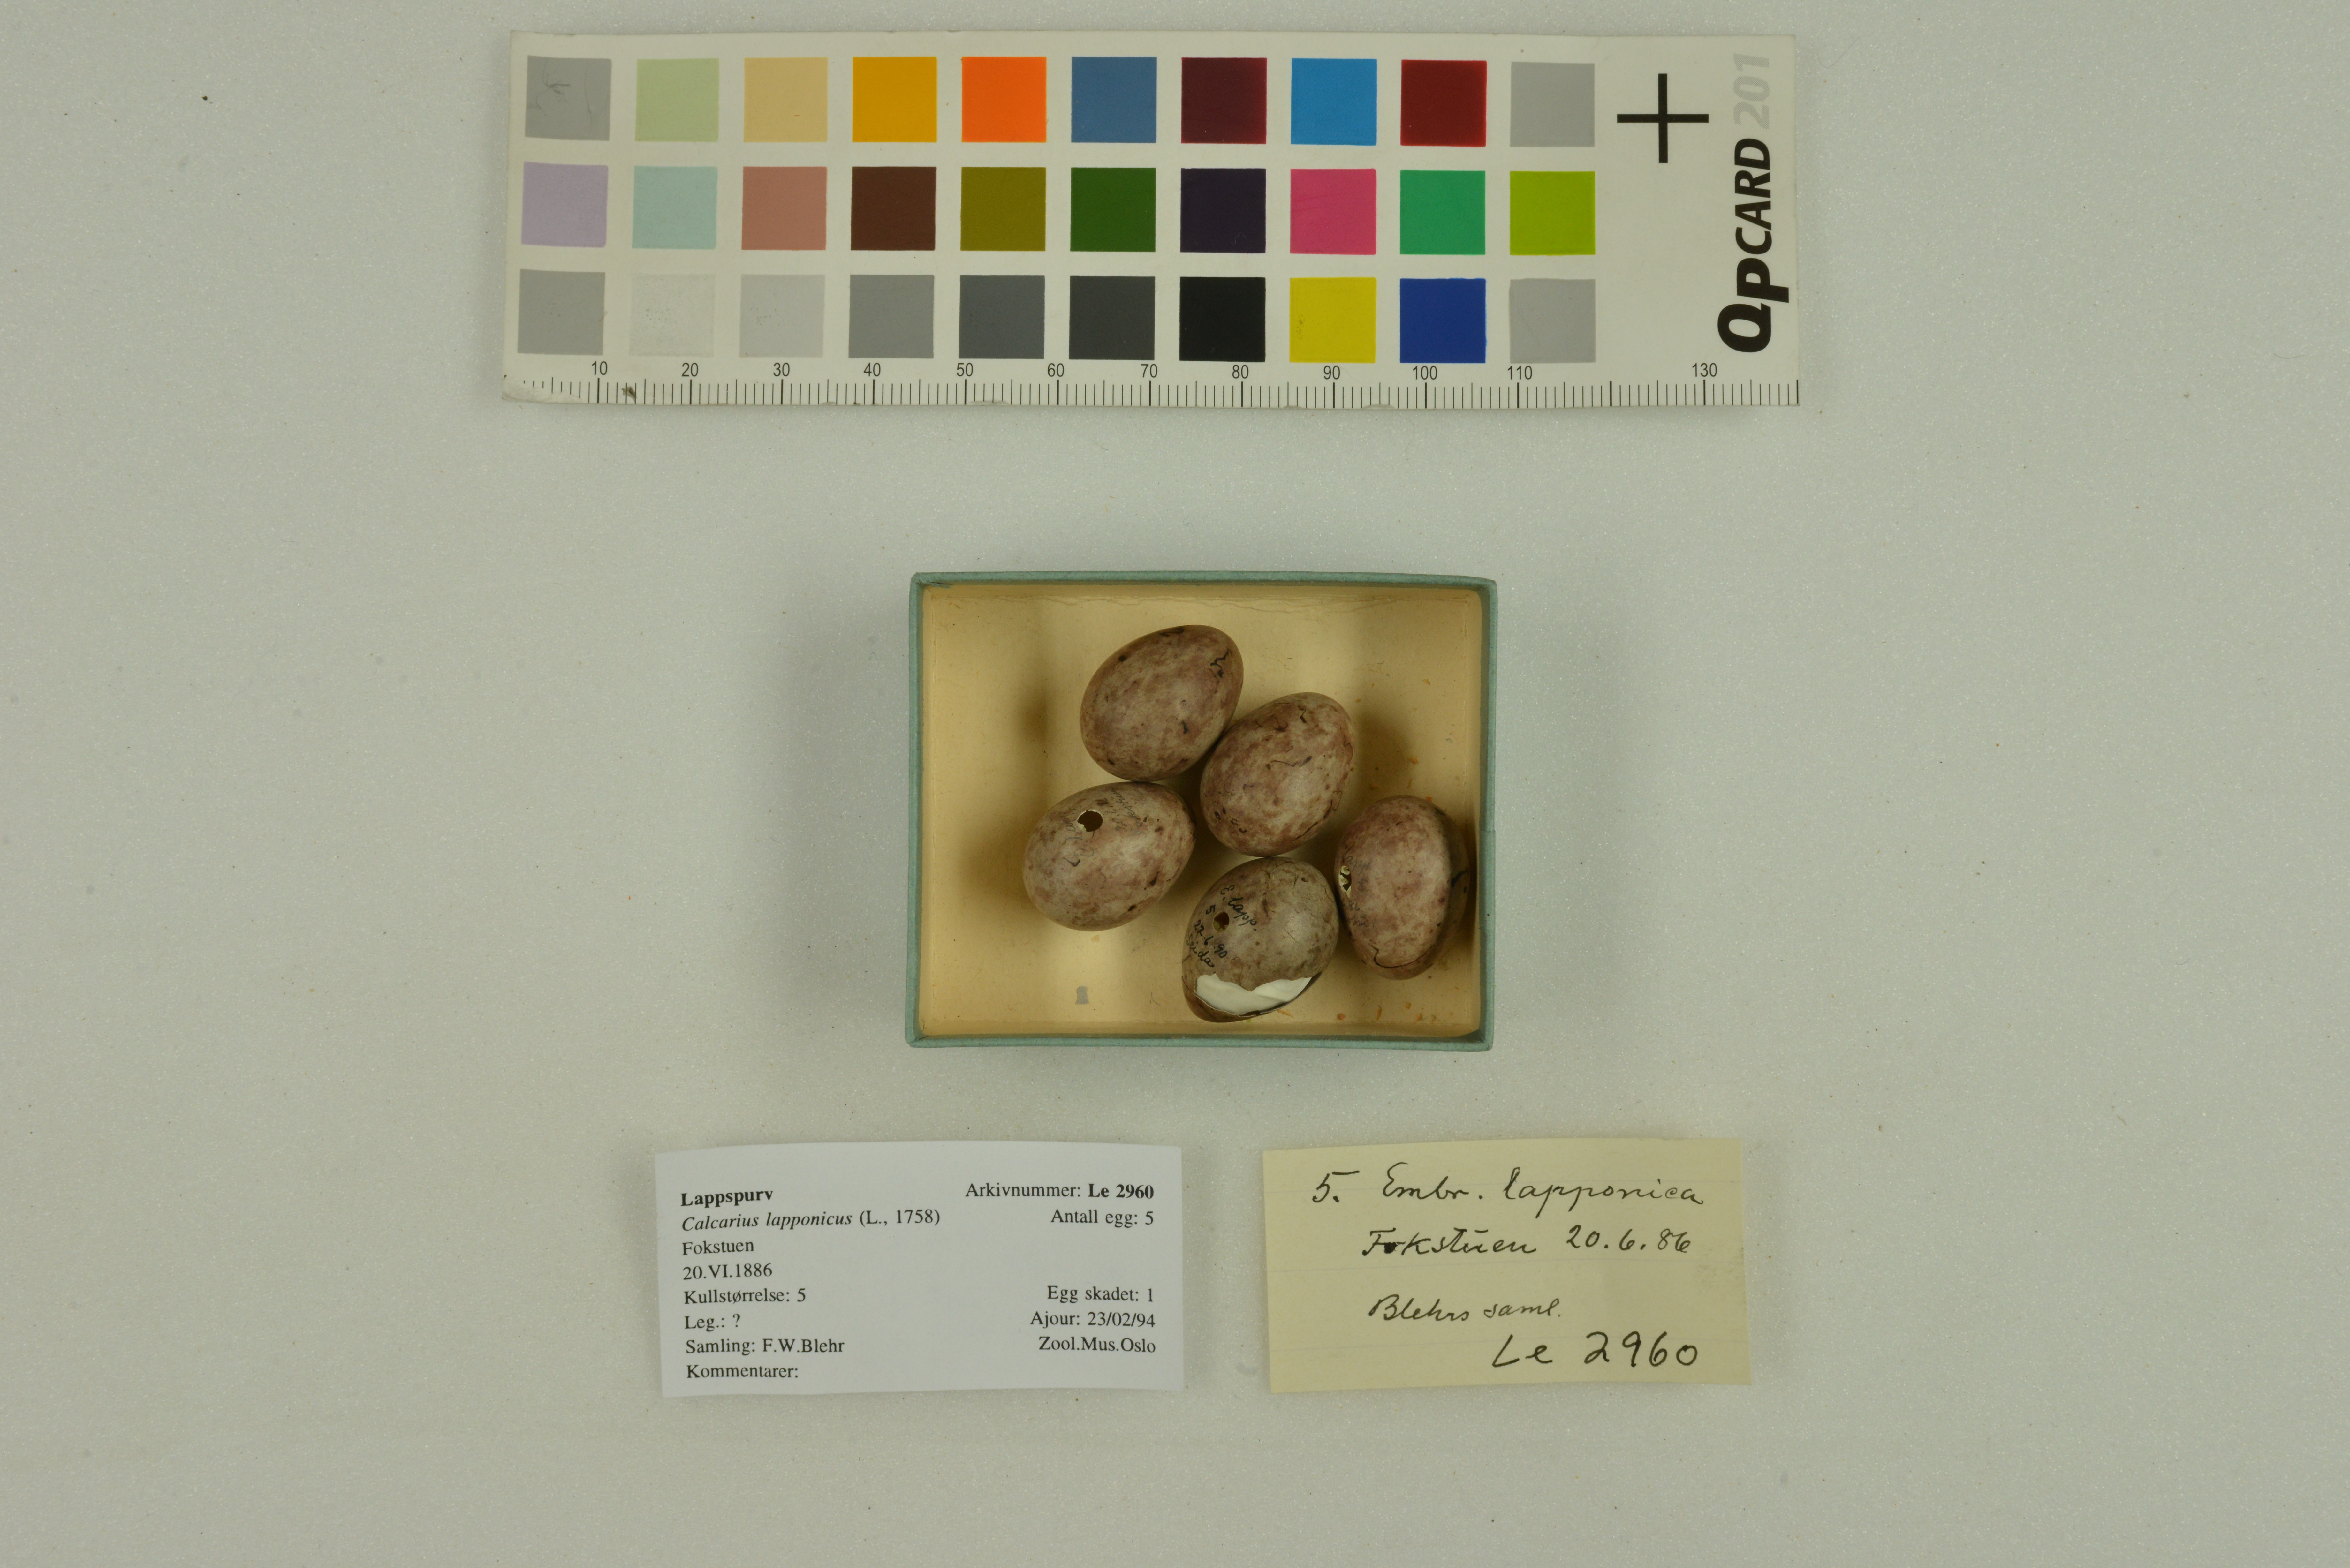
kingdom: Animalia
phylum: Chordata
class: Aves
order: Passeriformes
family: Calcariidae
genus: Calcarius
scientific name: Calcarius lapponicus
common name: Lapland longspur
